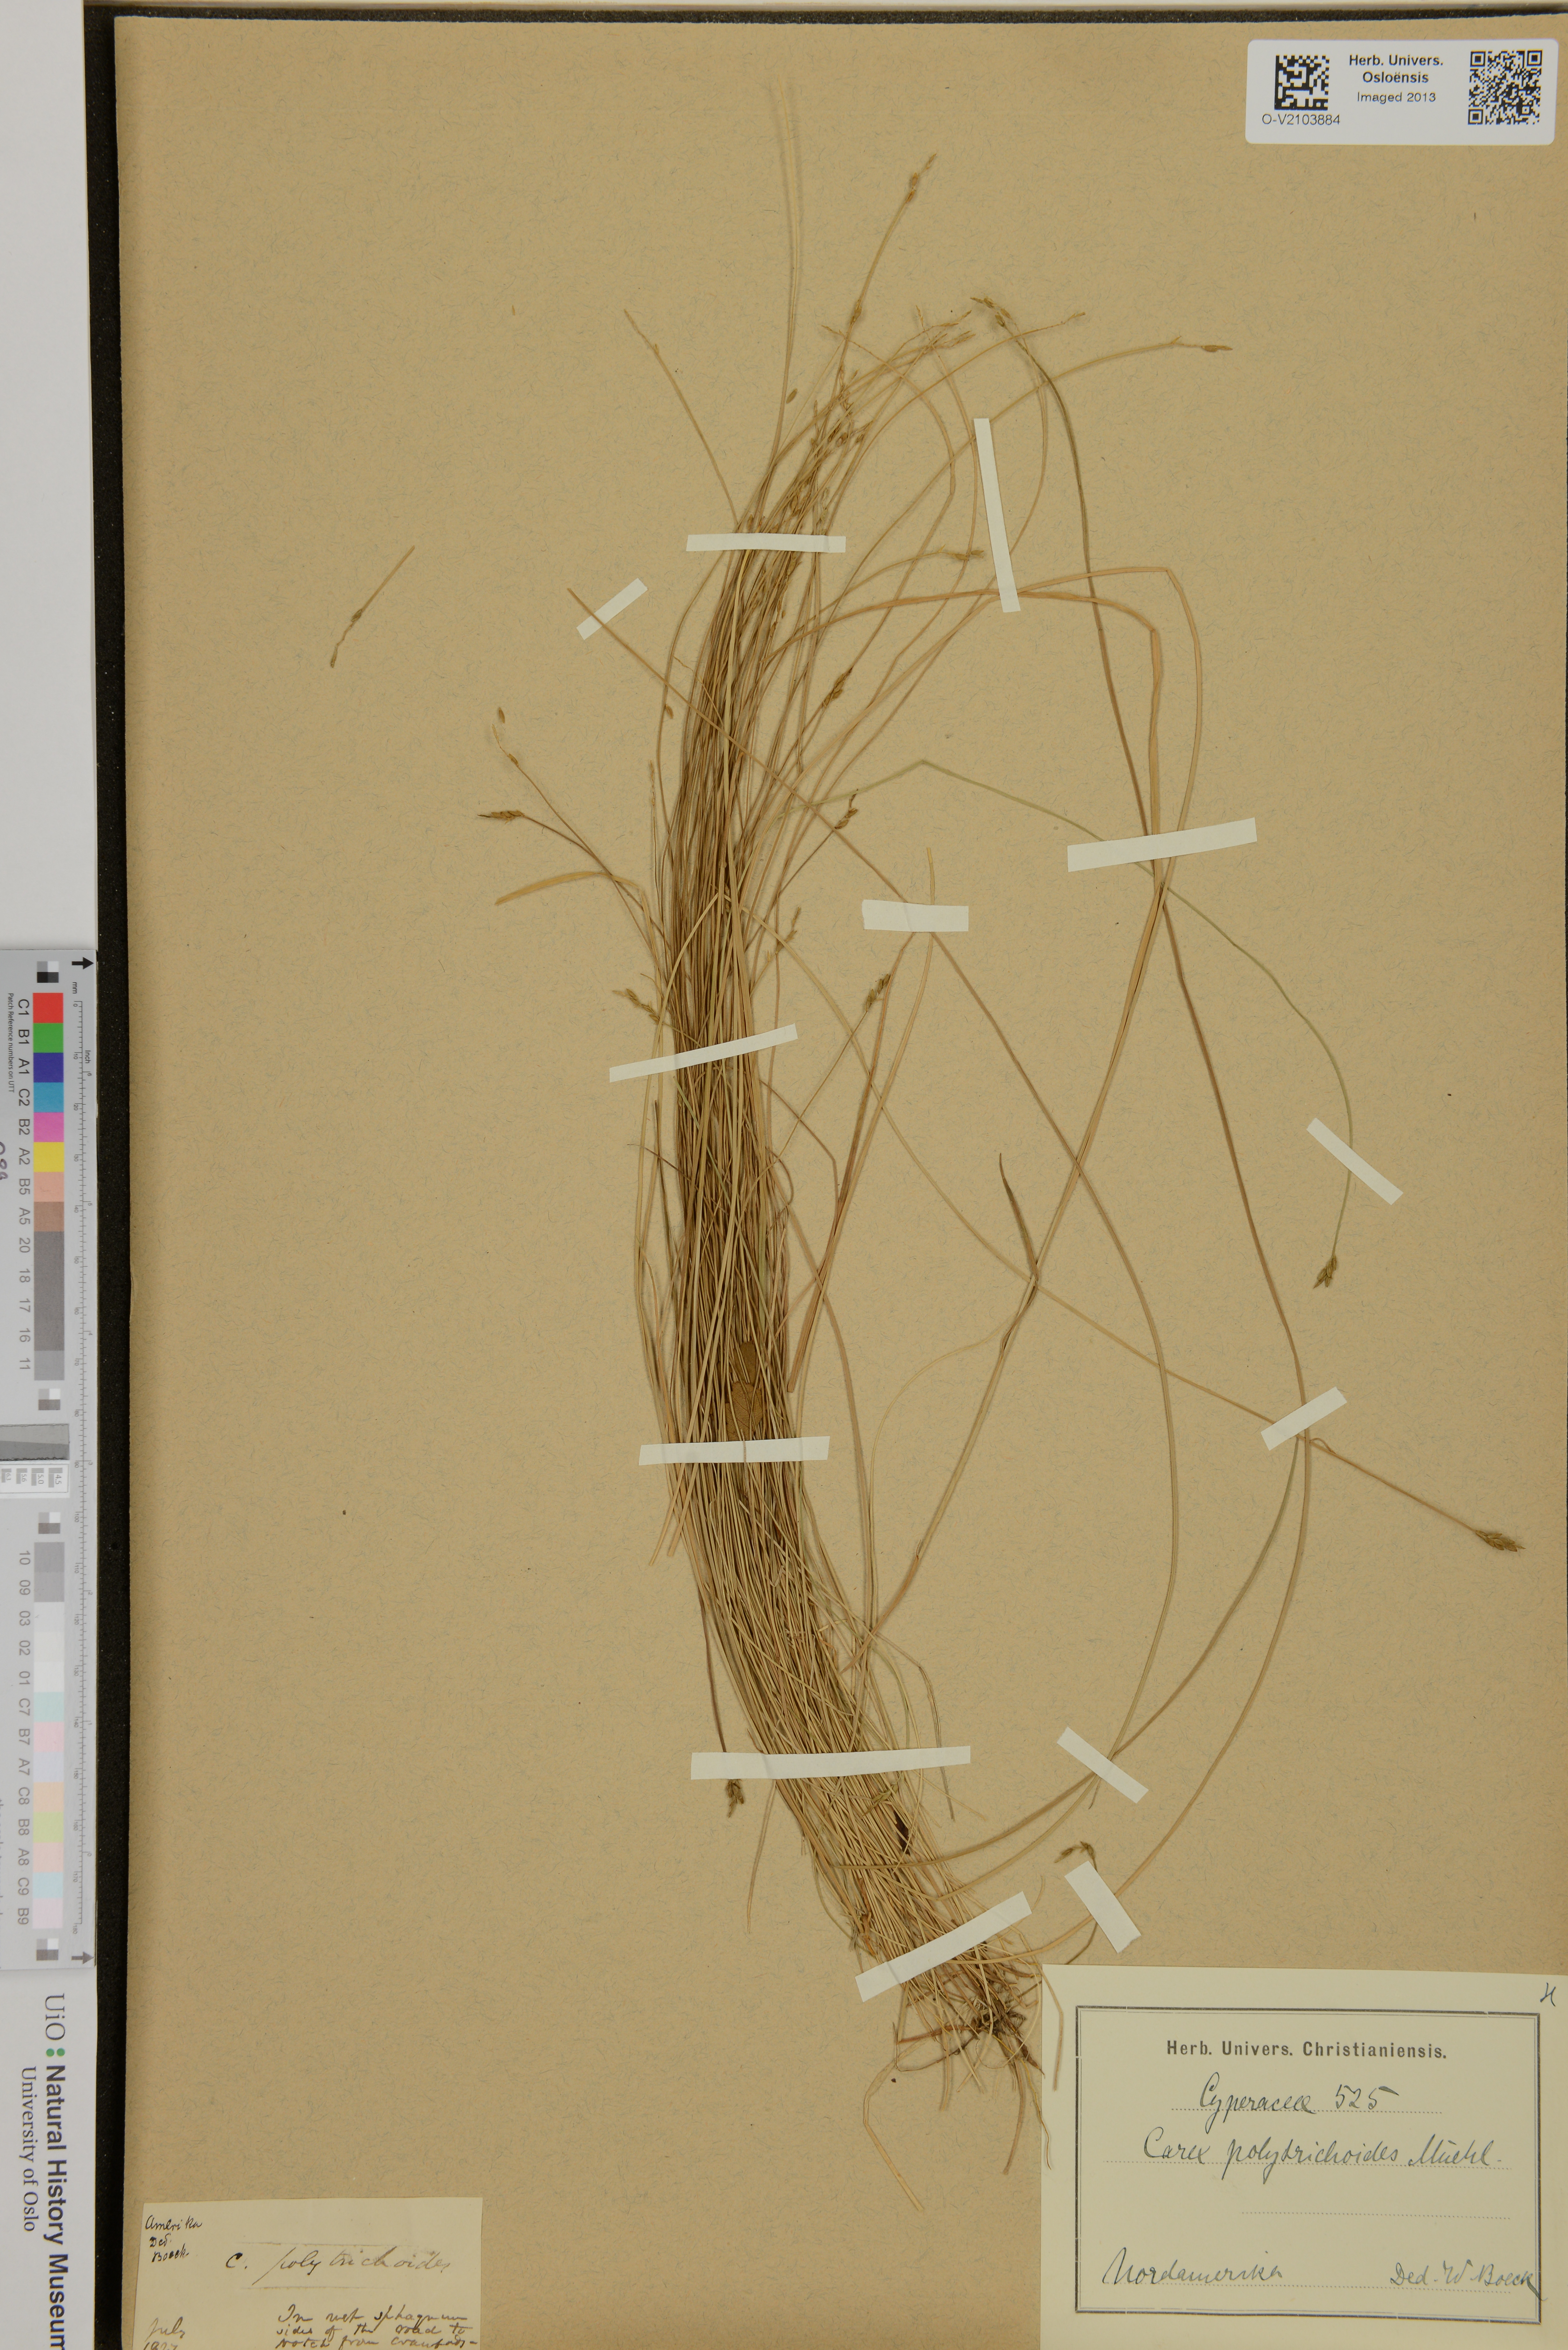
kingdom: Plantae
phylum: Tracheophyta
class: Liliopsida
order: Poales
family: Cyperaceae
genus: Carex
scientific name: Carex polytrichoides
